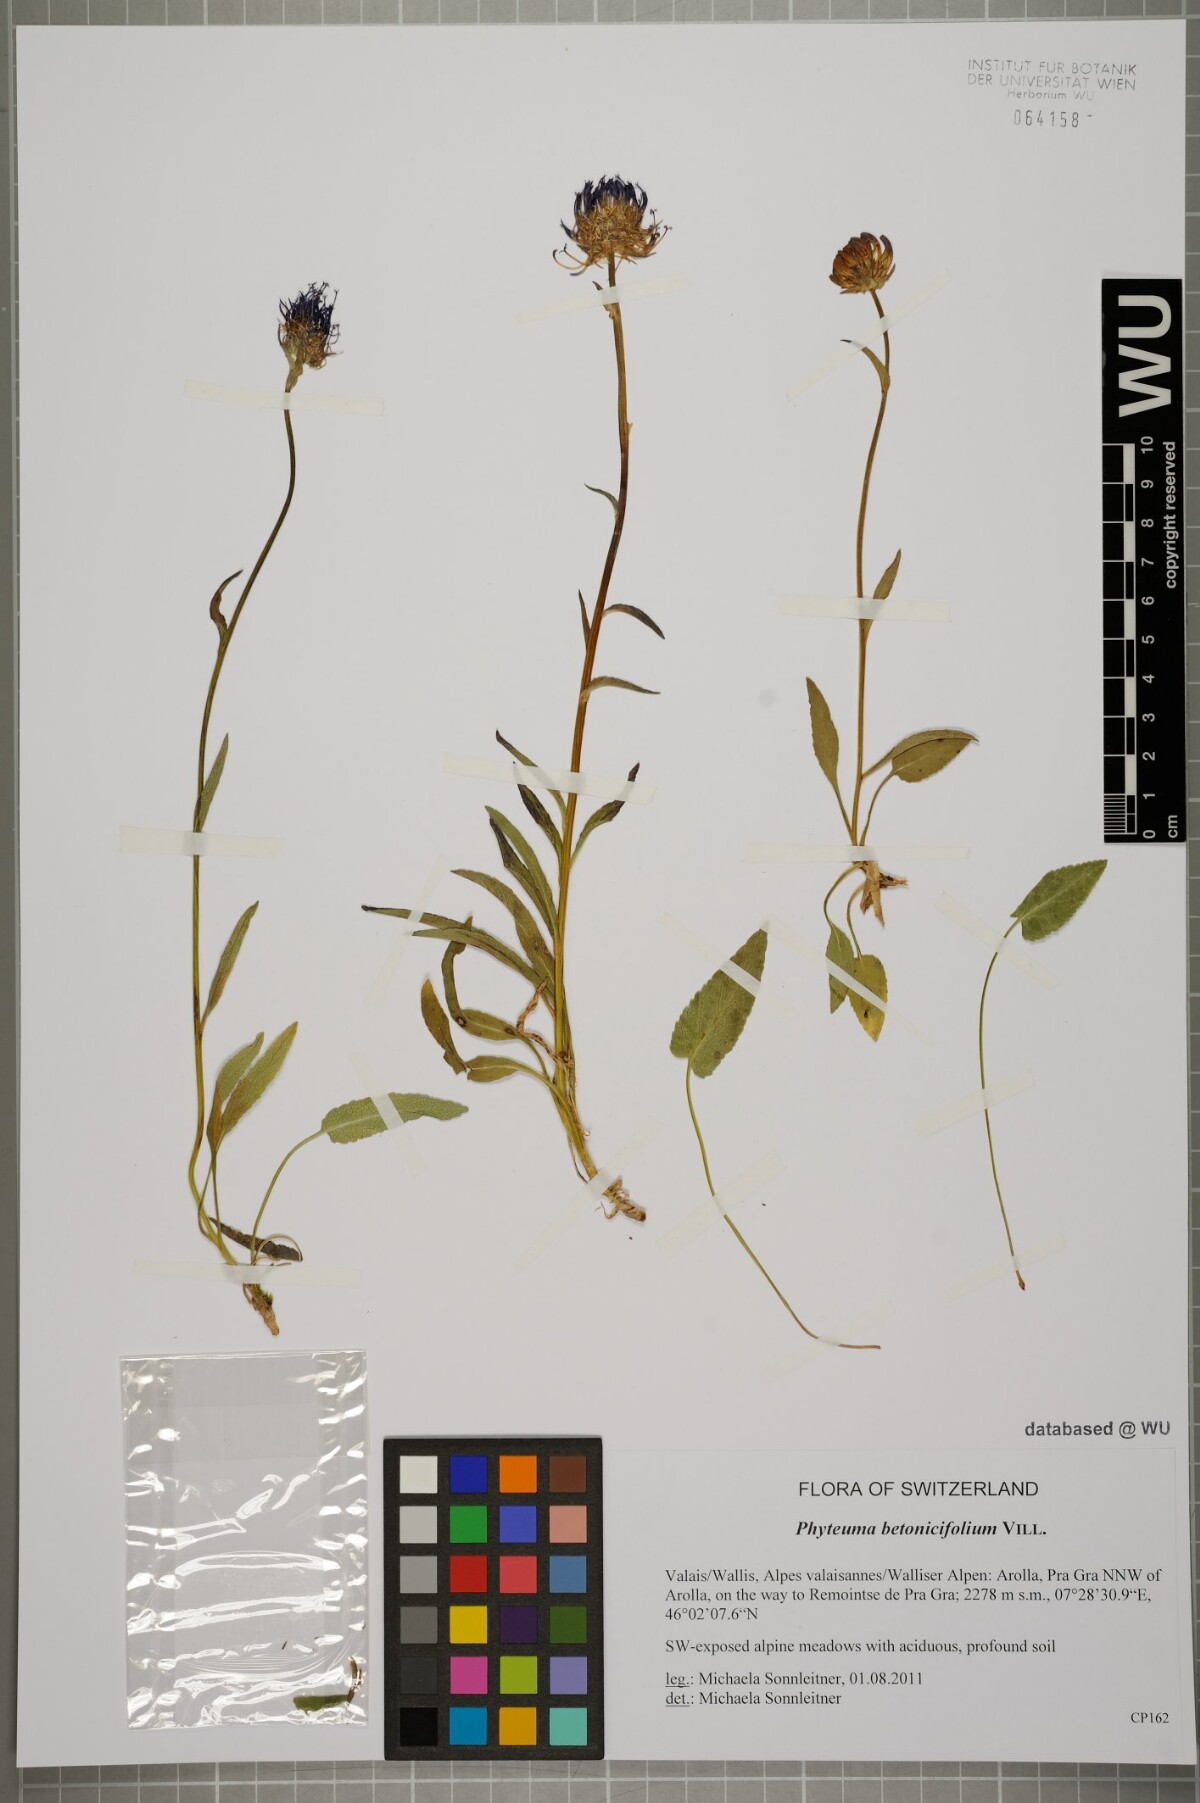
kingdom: Plantae
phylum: Tracheophyta
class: Magnoliopsida
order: Asterales
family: Campanulaceae
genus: Phyteuma
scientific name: Phyteuma betonicifolium
